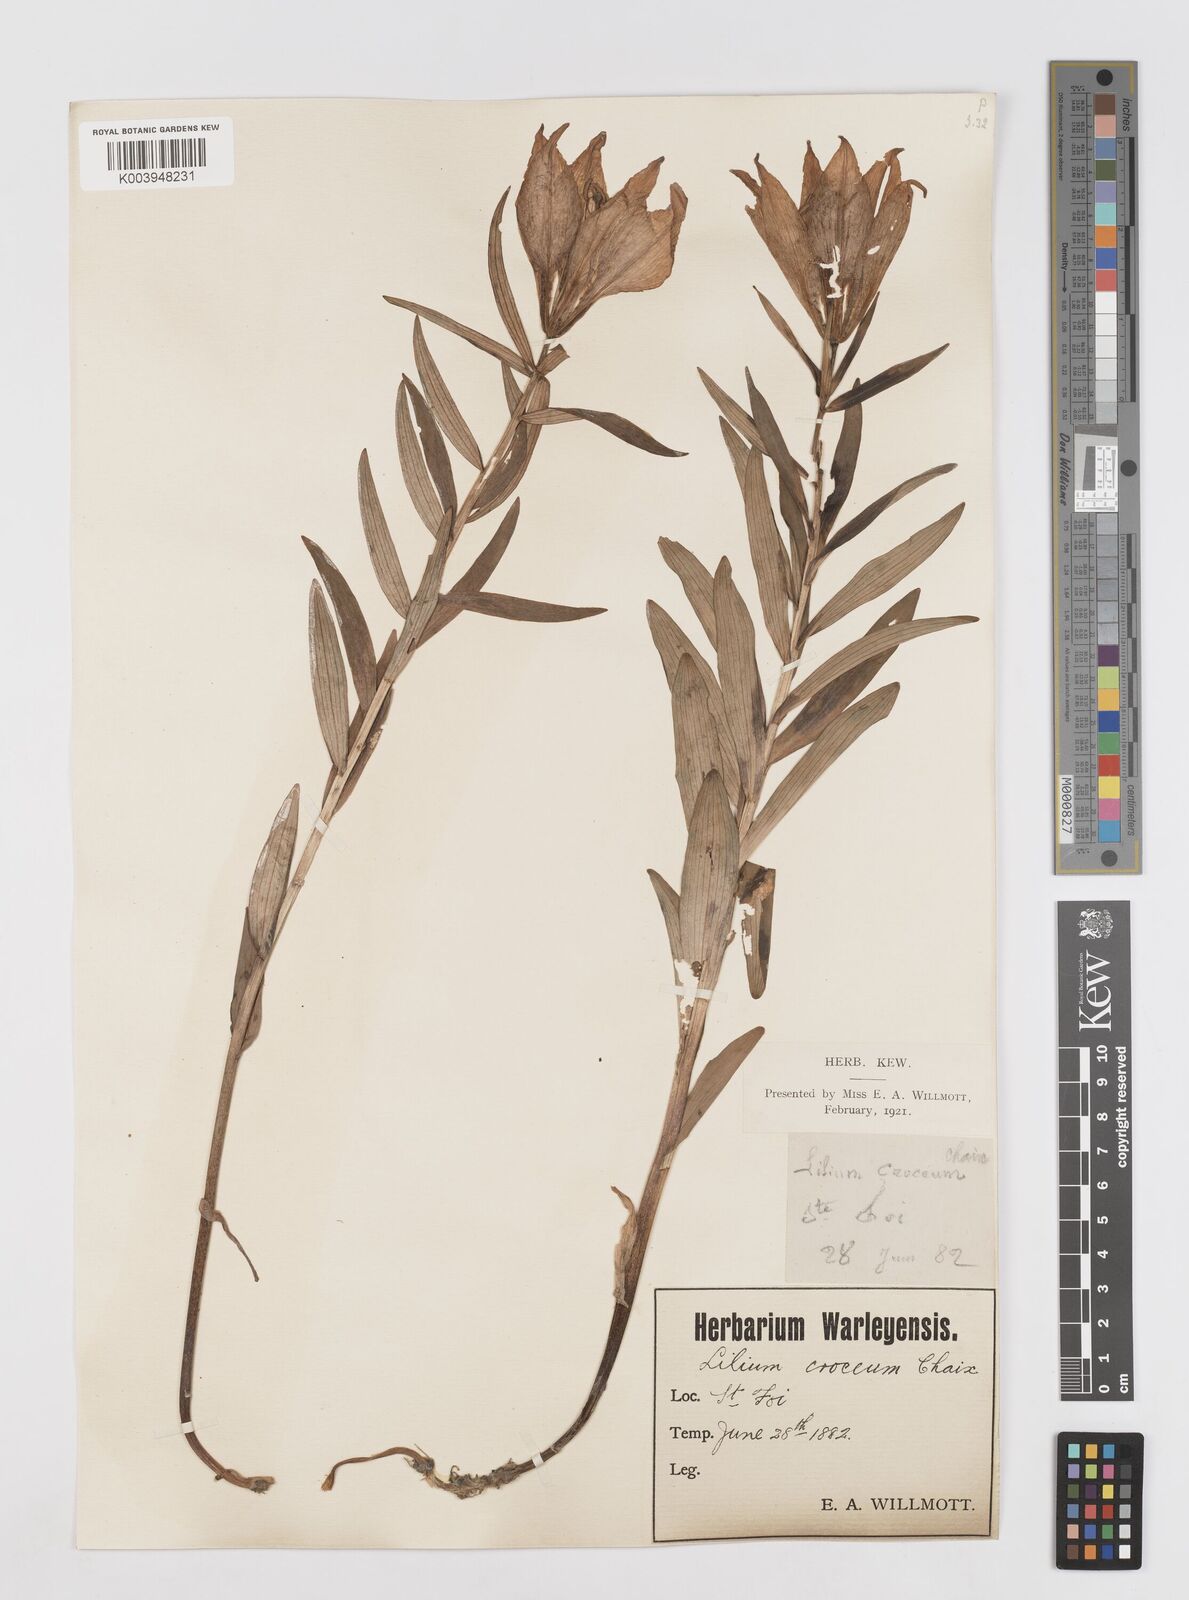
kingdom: Plantae
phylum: Tracheophyta
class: Liliopsida
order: Liliales
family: Liliaceae
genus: Lilium
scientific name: Lilium bulbiferum
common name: Orange lily
